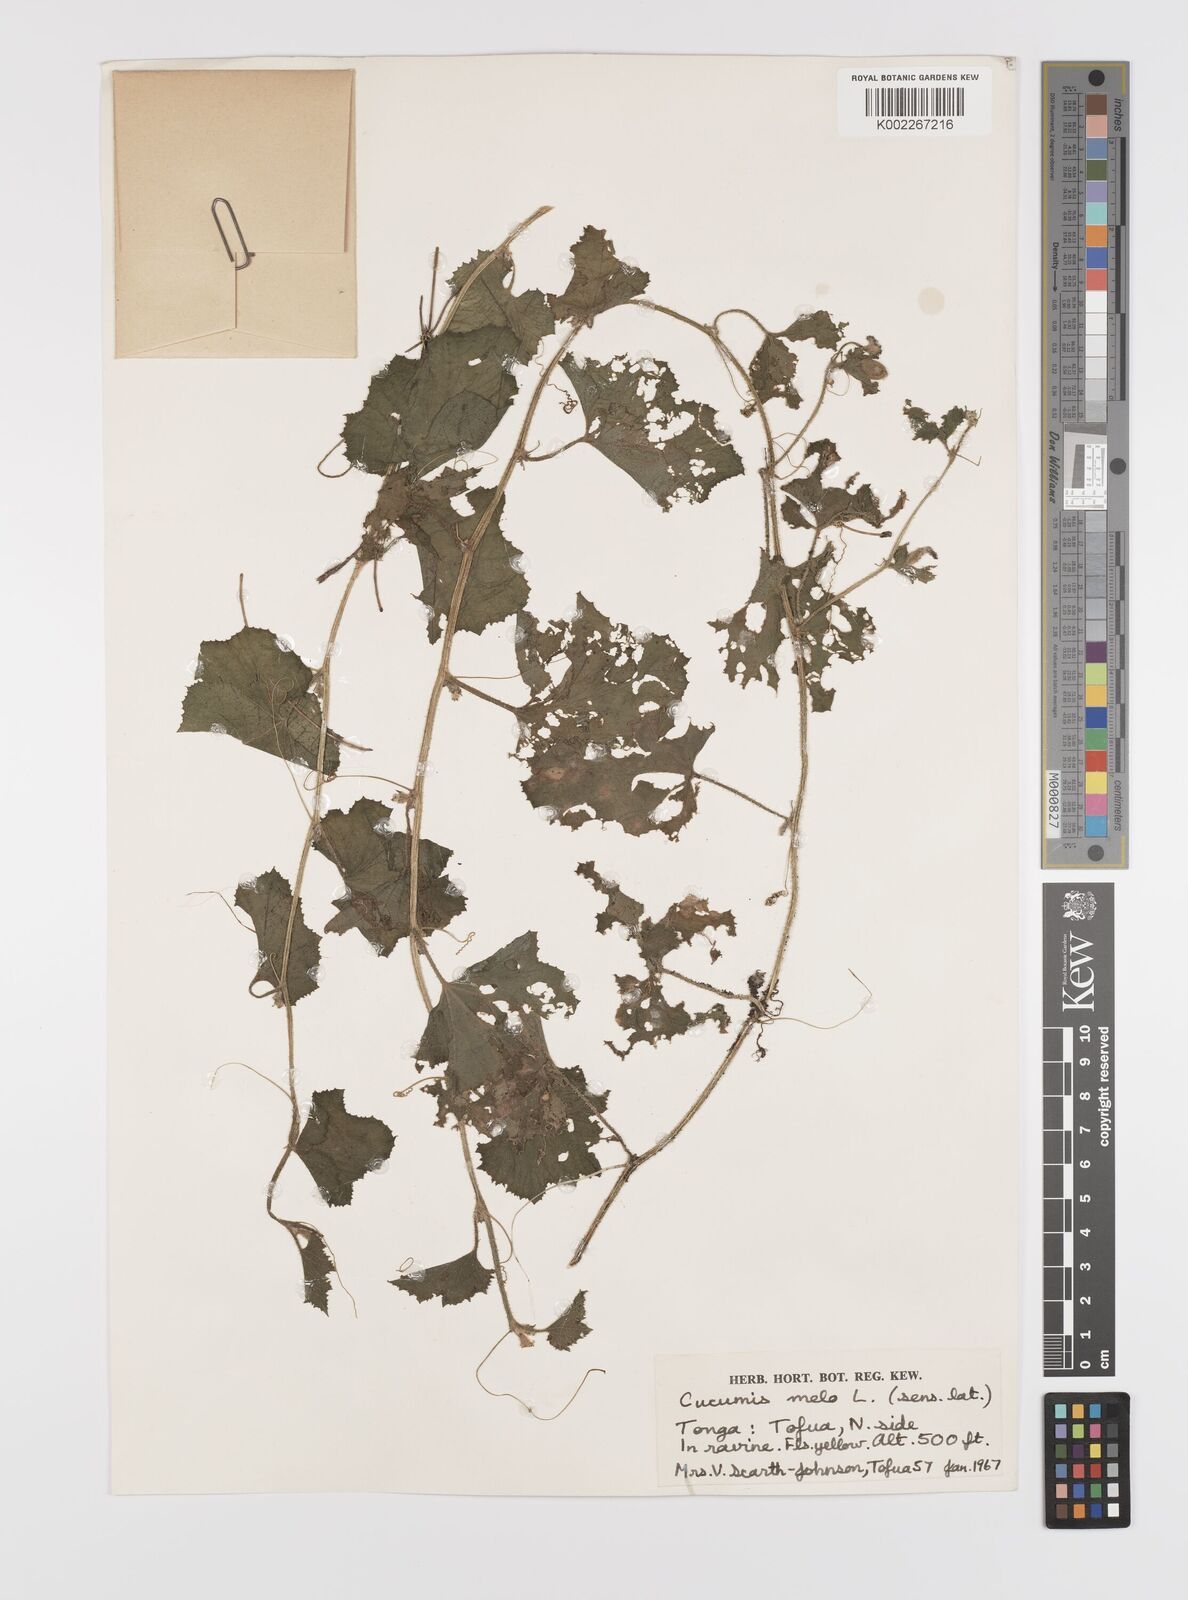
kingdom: Plantae
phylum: Tracheophyta
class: Magnoliopsida
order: Cucurbitales
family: Cucurbitaceae
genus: Cucumis
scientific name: Cucumis melo
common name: Melon
